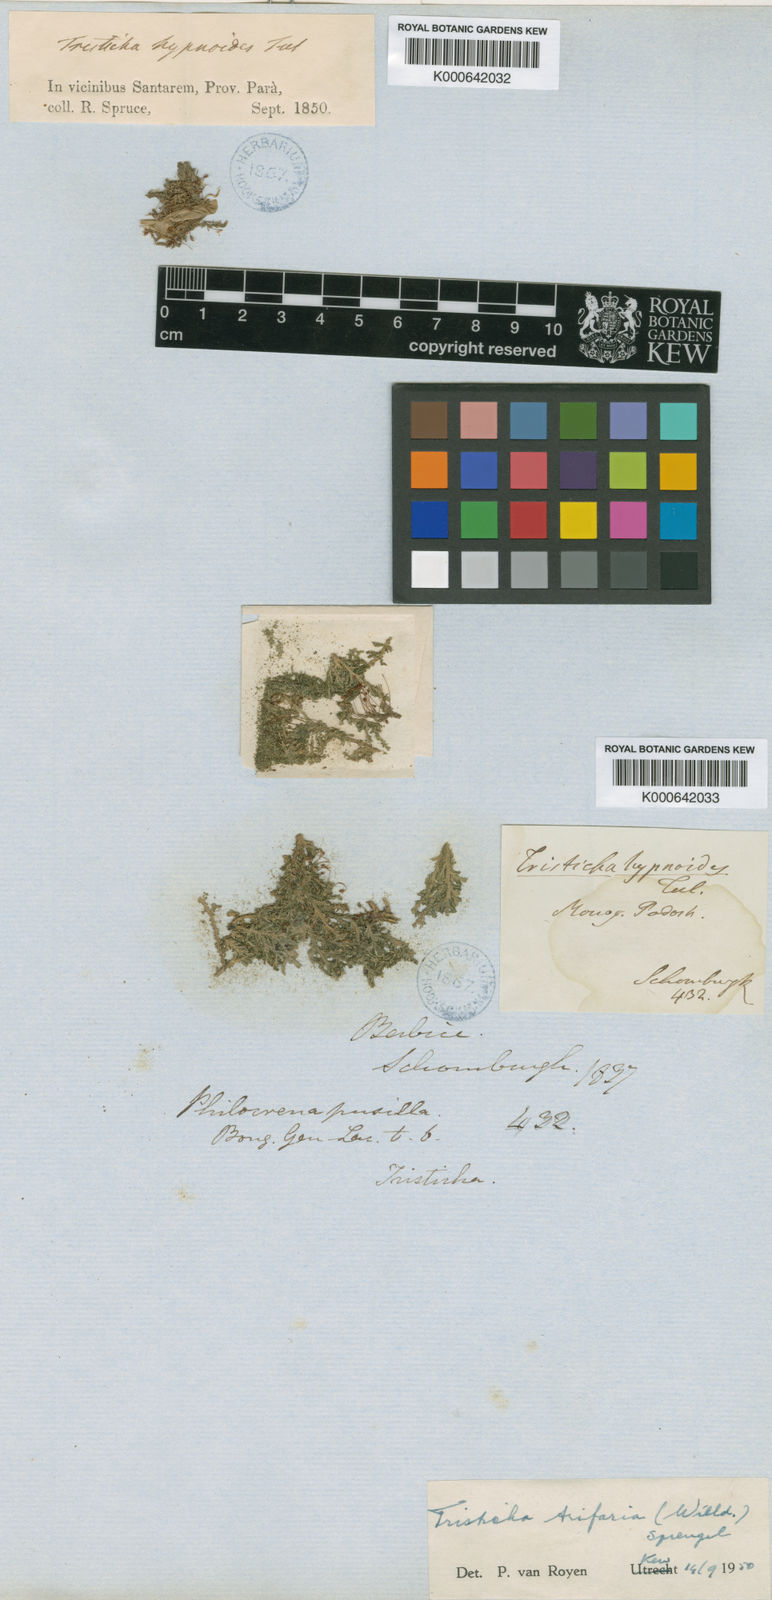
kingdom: Plantae
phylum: Tracheophyta
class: Magnoliopsida
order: Malpighiales
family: Podostemaceae
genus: Tristicha
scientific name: Tristicha trifaria
